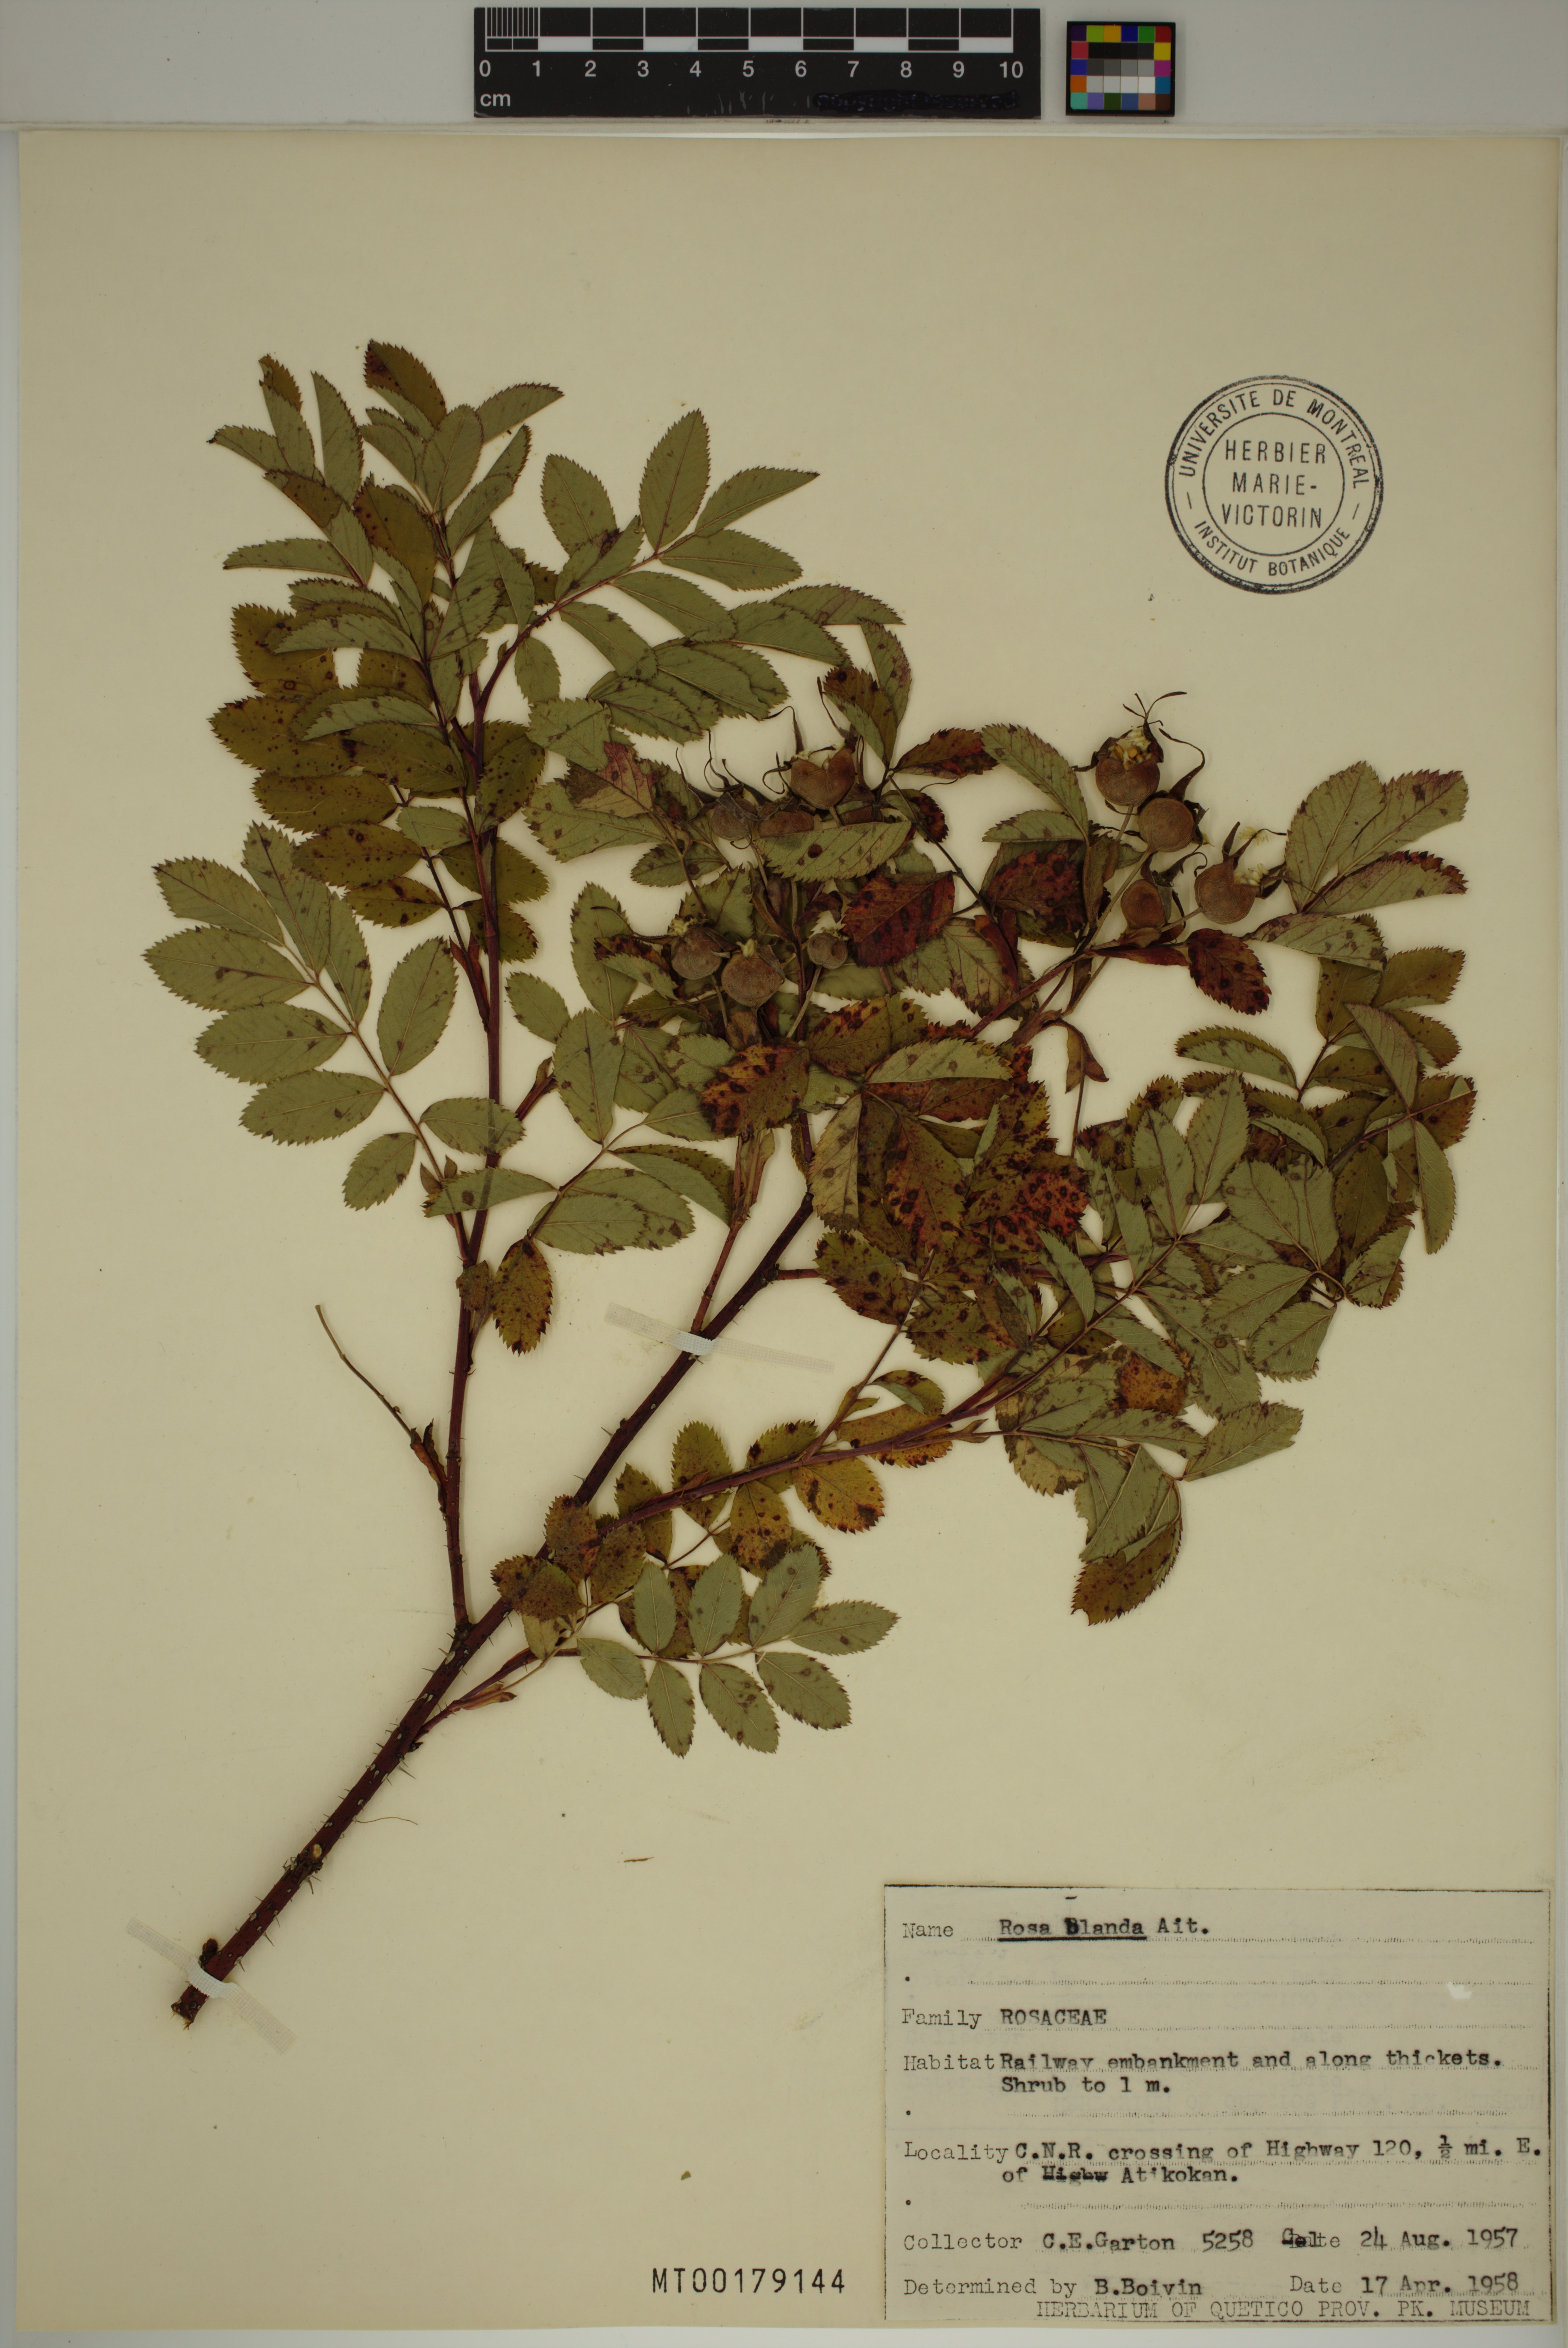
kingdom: Plantae
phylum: Tracheophyta
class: Magnoliopsida
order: Rosales
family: Rosaceae
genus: Rosa
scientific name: Rosa blanda
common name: Smooth rose
